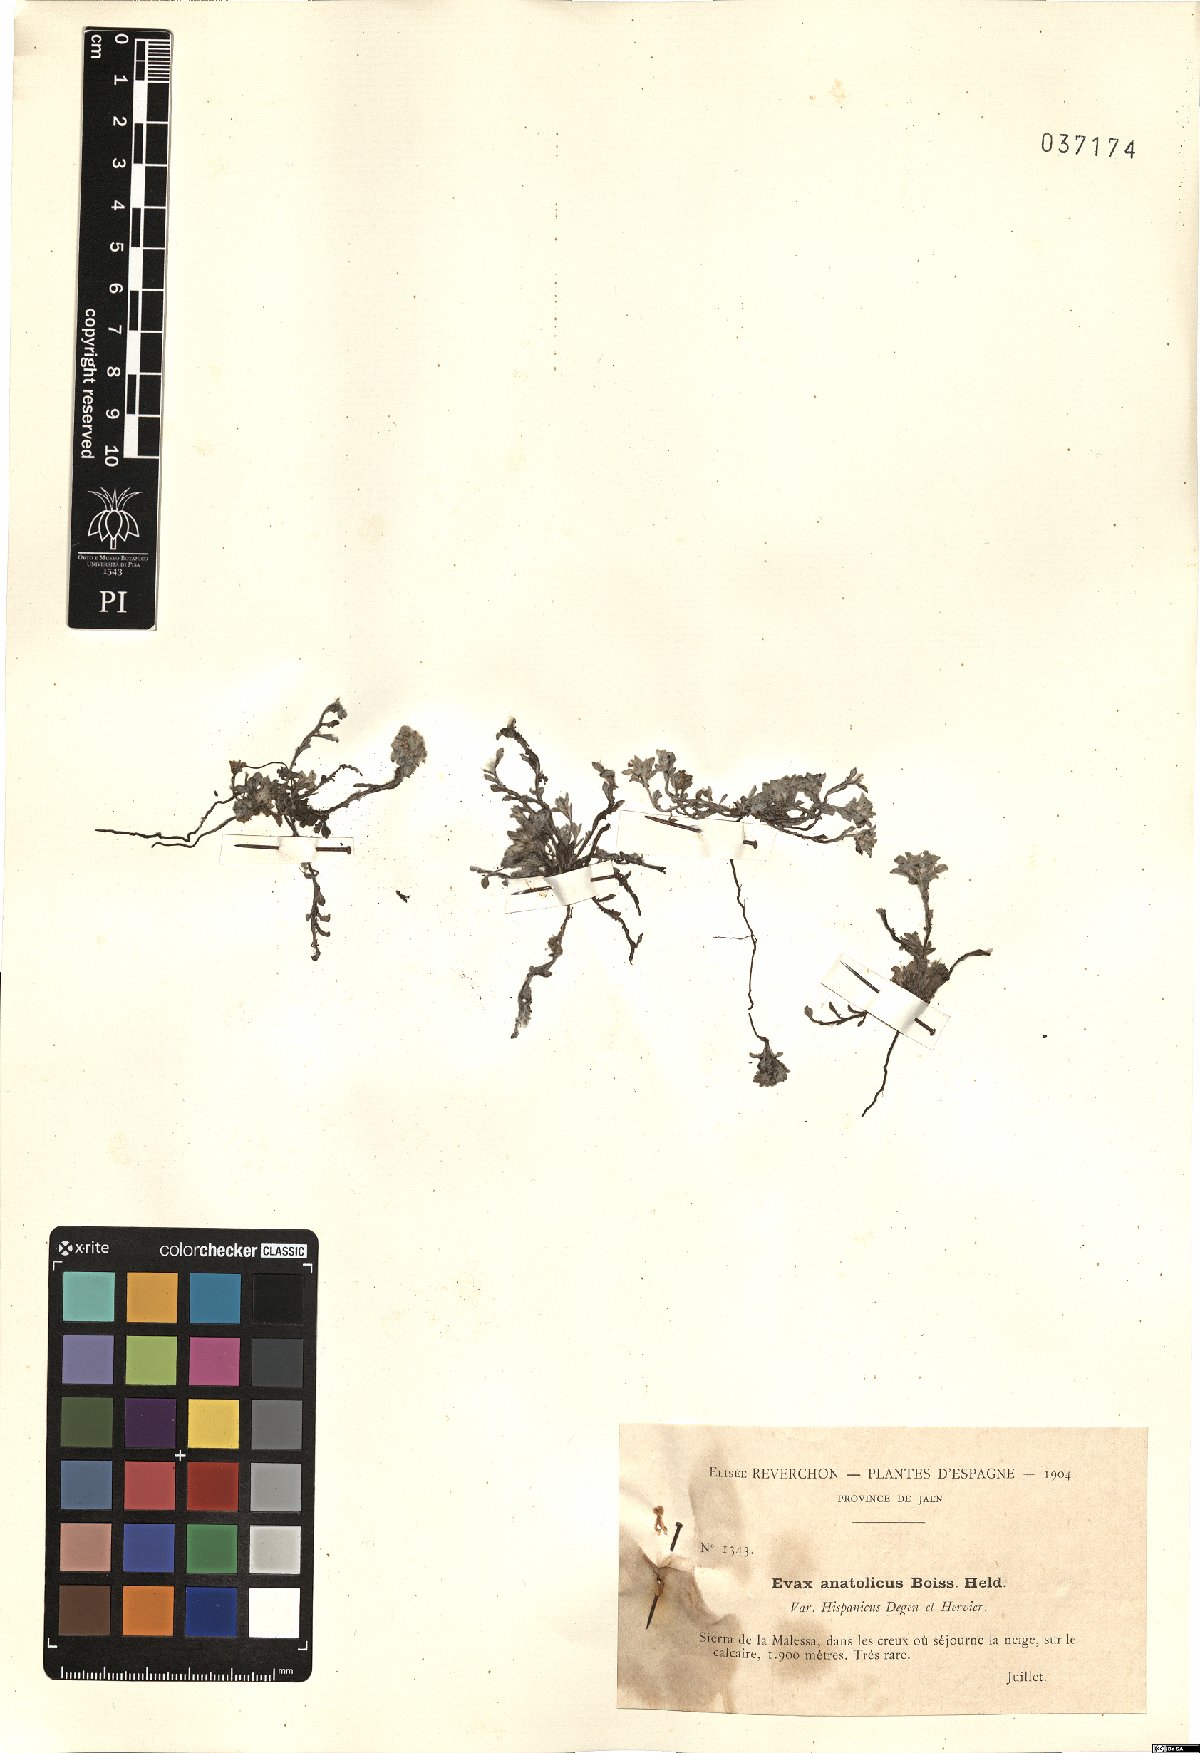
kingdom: Plantae
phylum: Tracheophyta
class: Magnoliopsida
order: Asterales
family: Asteraceae
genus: Filago
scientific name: Filago anatolica
